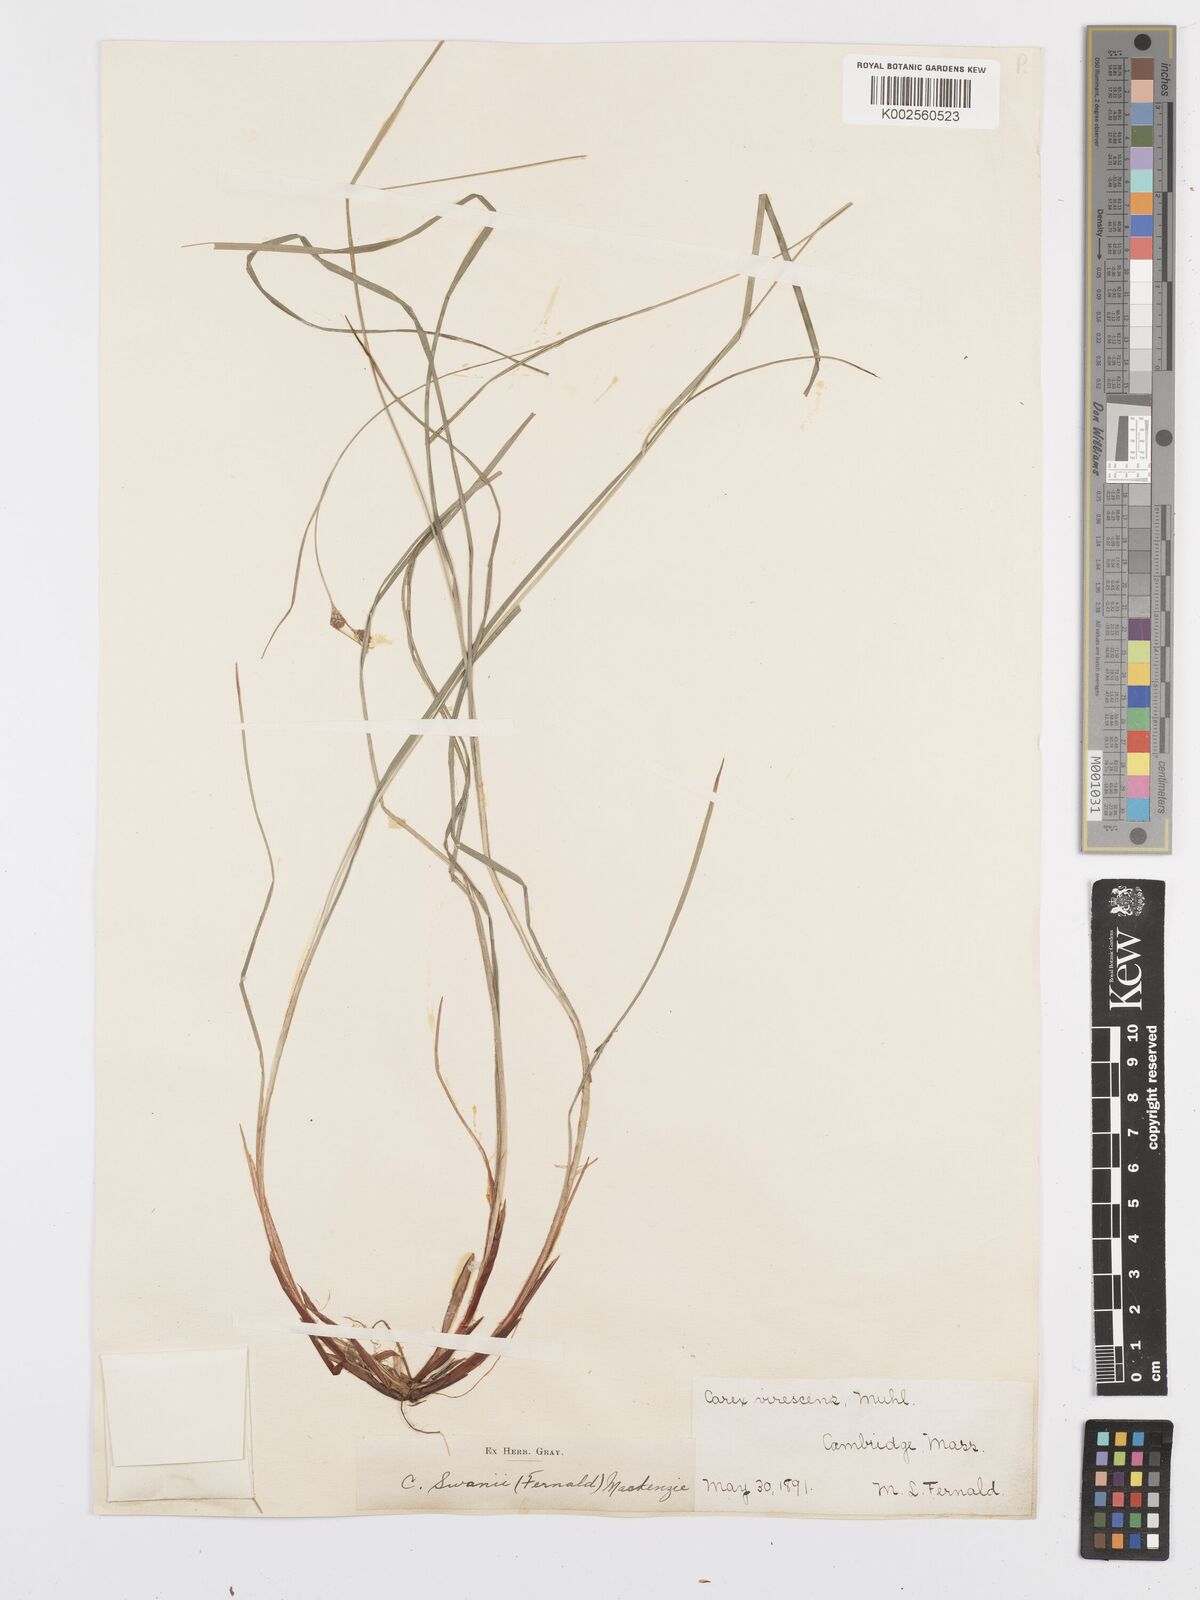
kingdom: Plantae
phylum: Tracheophyta
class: Liliopsida
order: Poales
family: Cyperaceae
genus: Carex
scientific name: Carex swanii
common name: Downy green sedge
